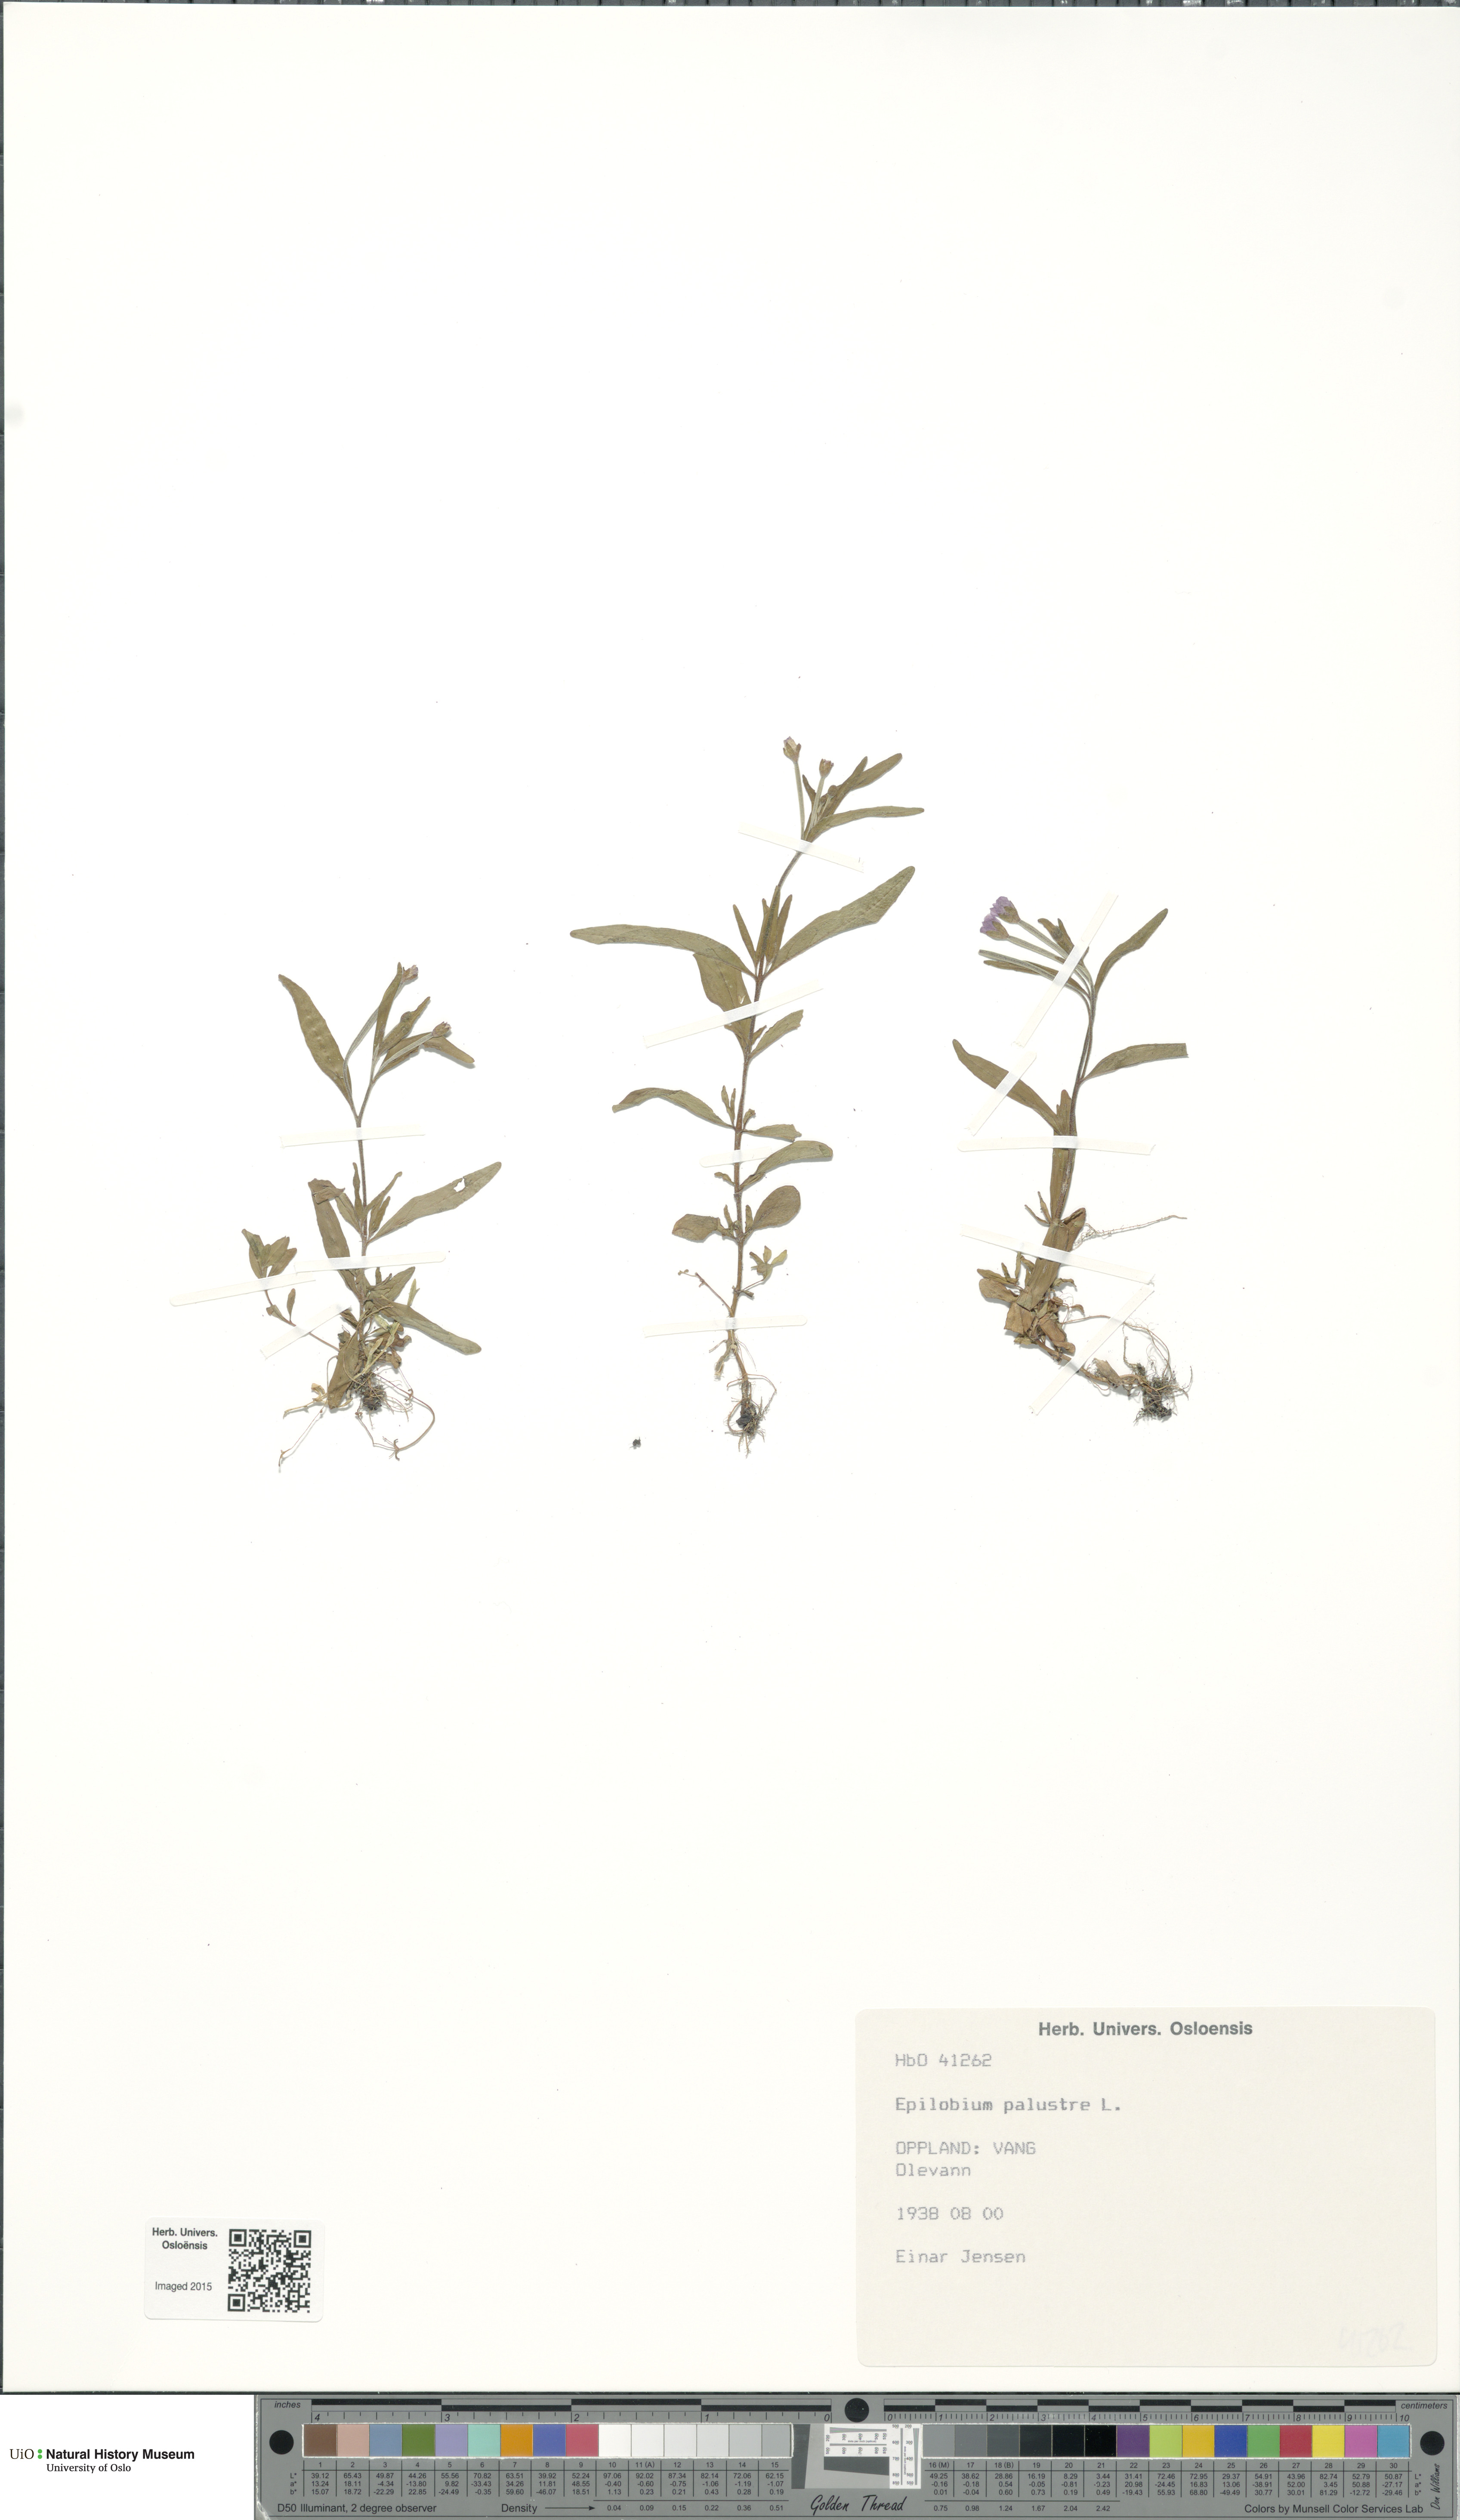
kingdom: Plantae
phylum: Tracheophyta
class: Magnoliopsida
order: Myrtales
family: Onagraceae
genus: Epilobium
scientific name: Epilobium palustre
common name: Marsh willowherb
